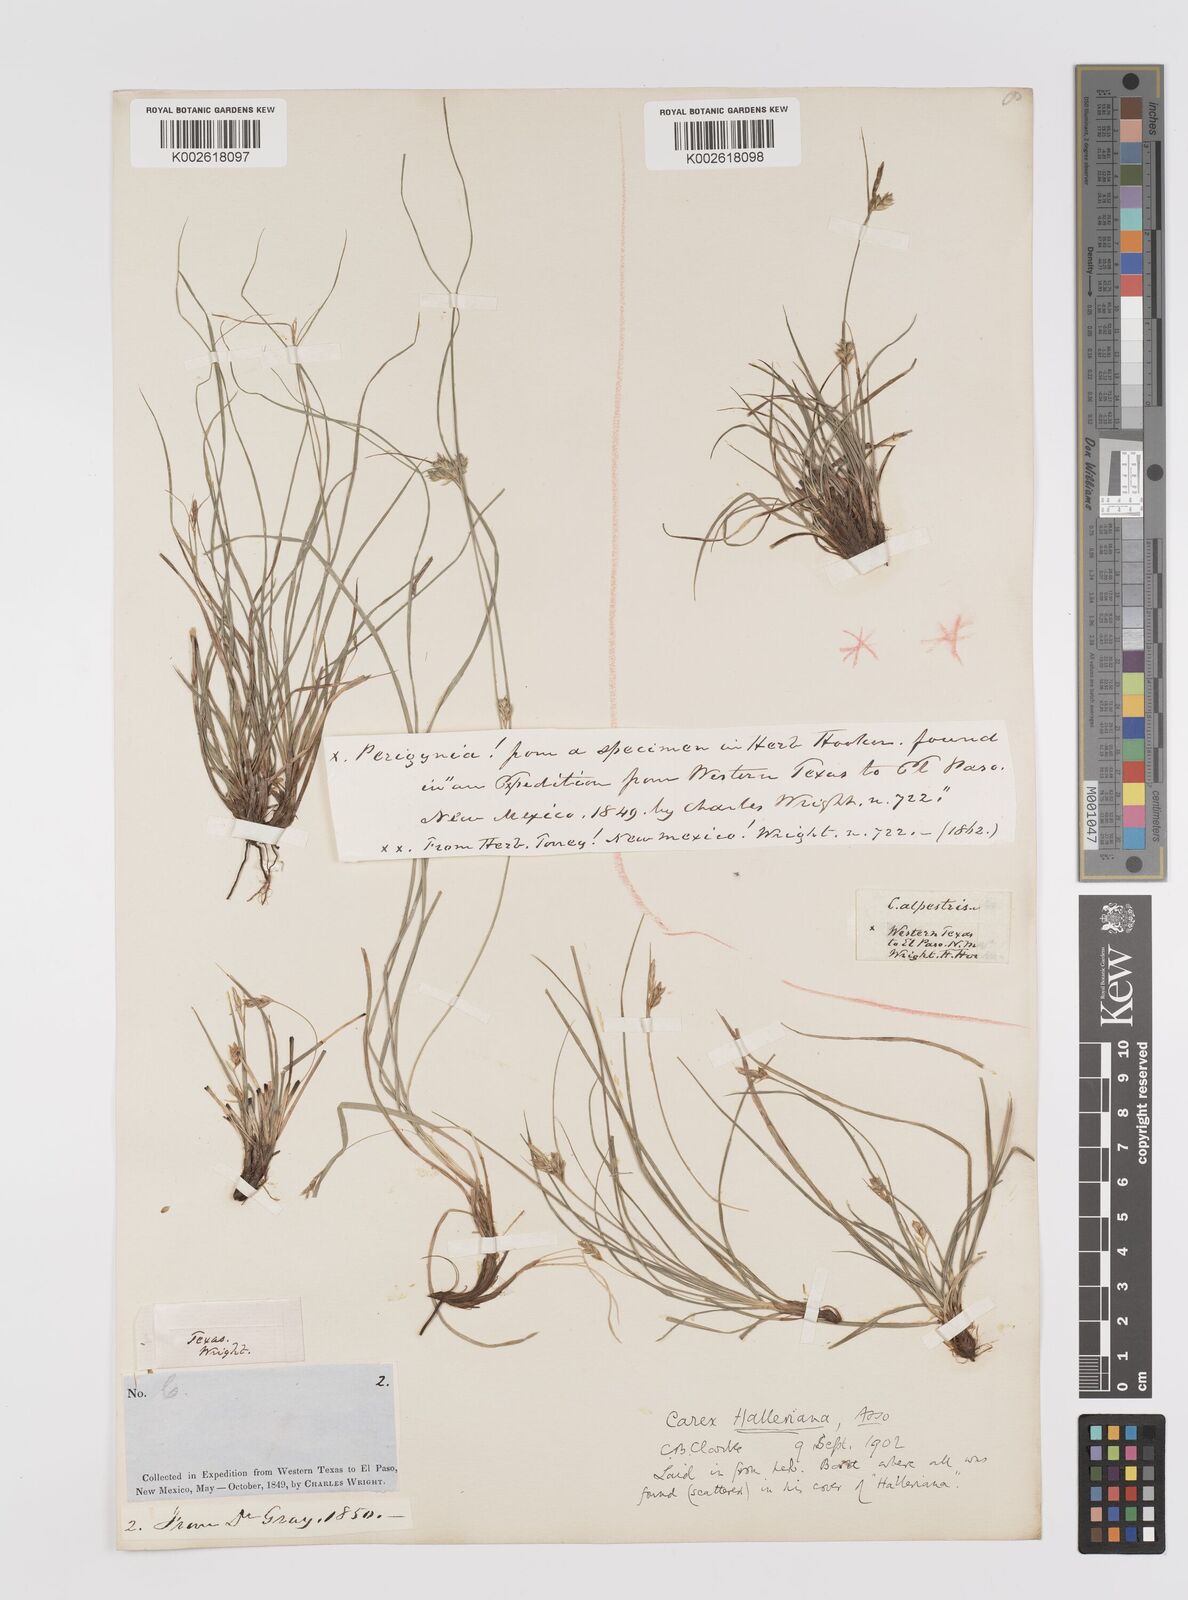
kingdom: Plantae
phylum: Tracheophyta
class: Liliopsida
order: Poales
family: Cyperaceae
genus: Carex
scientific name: Carex planostachys
